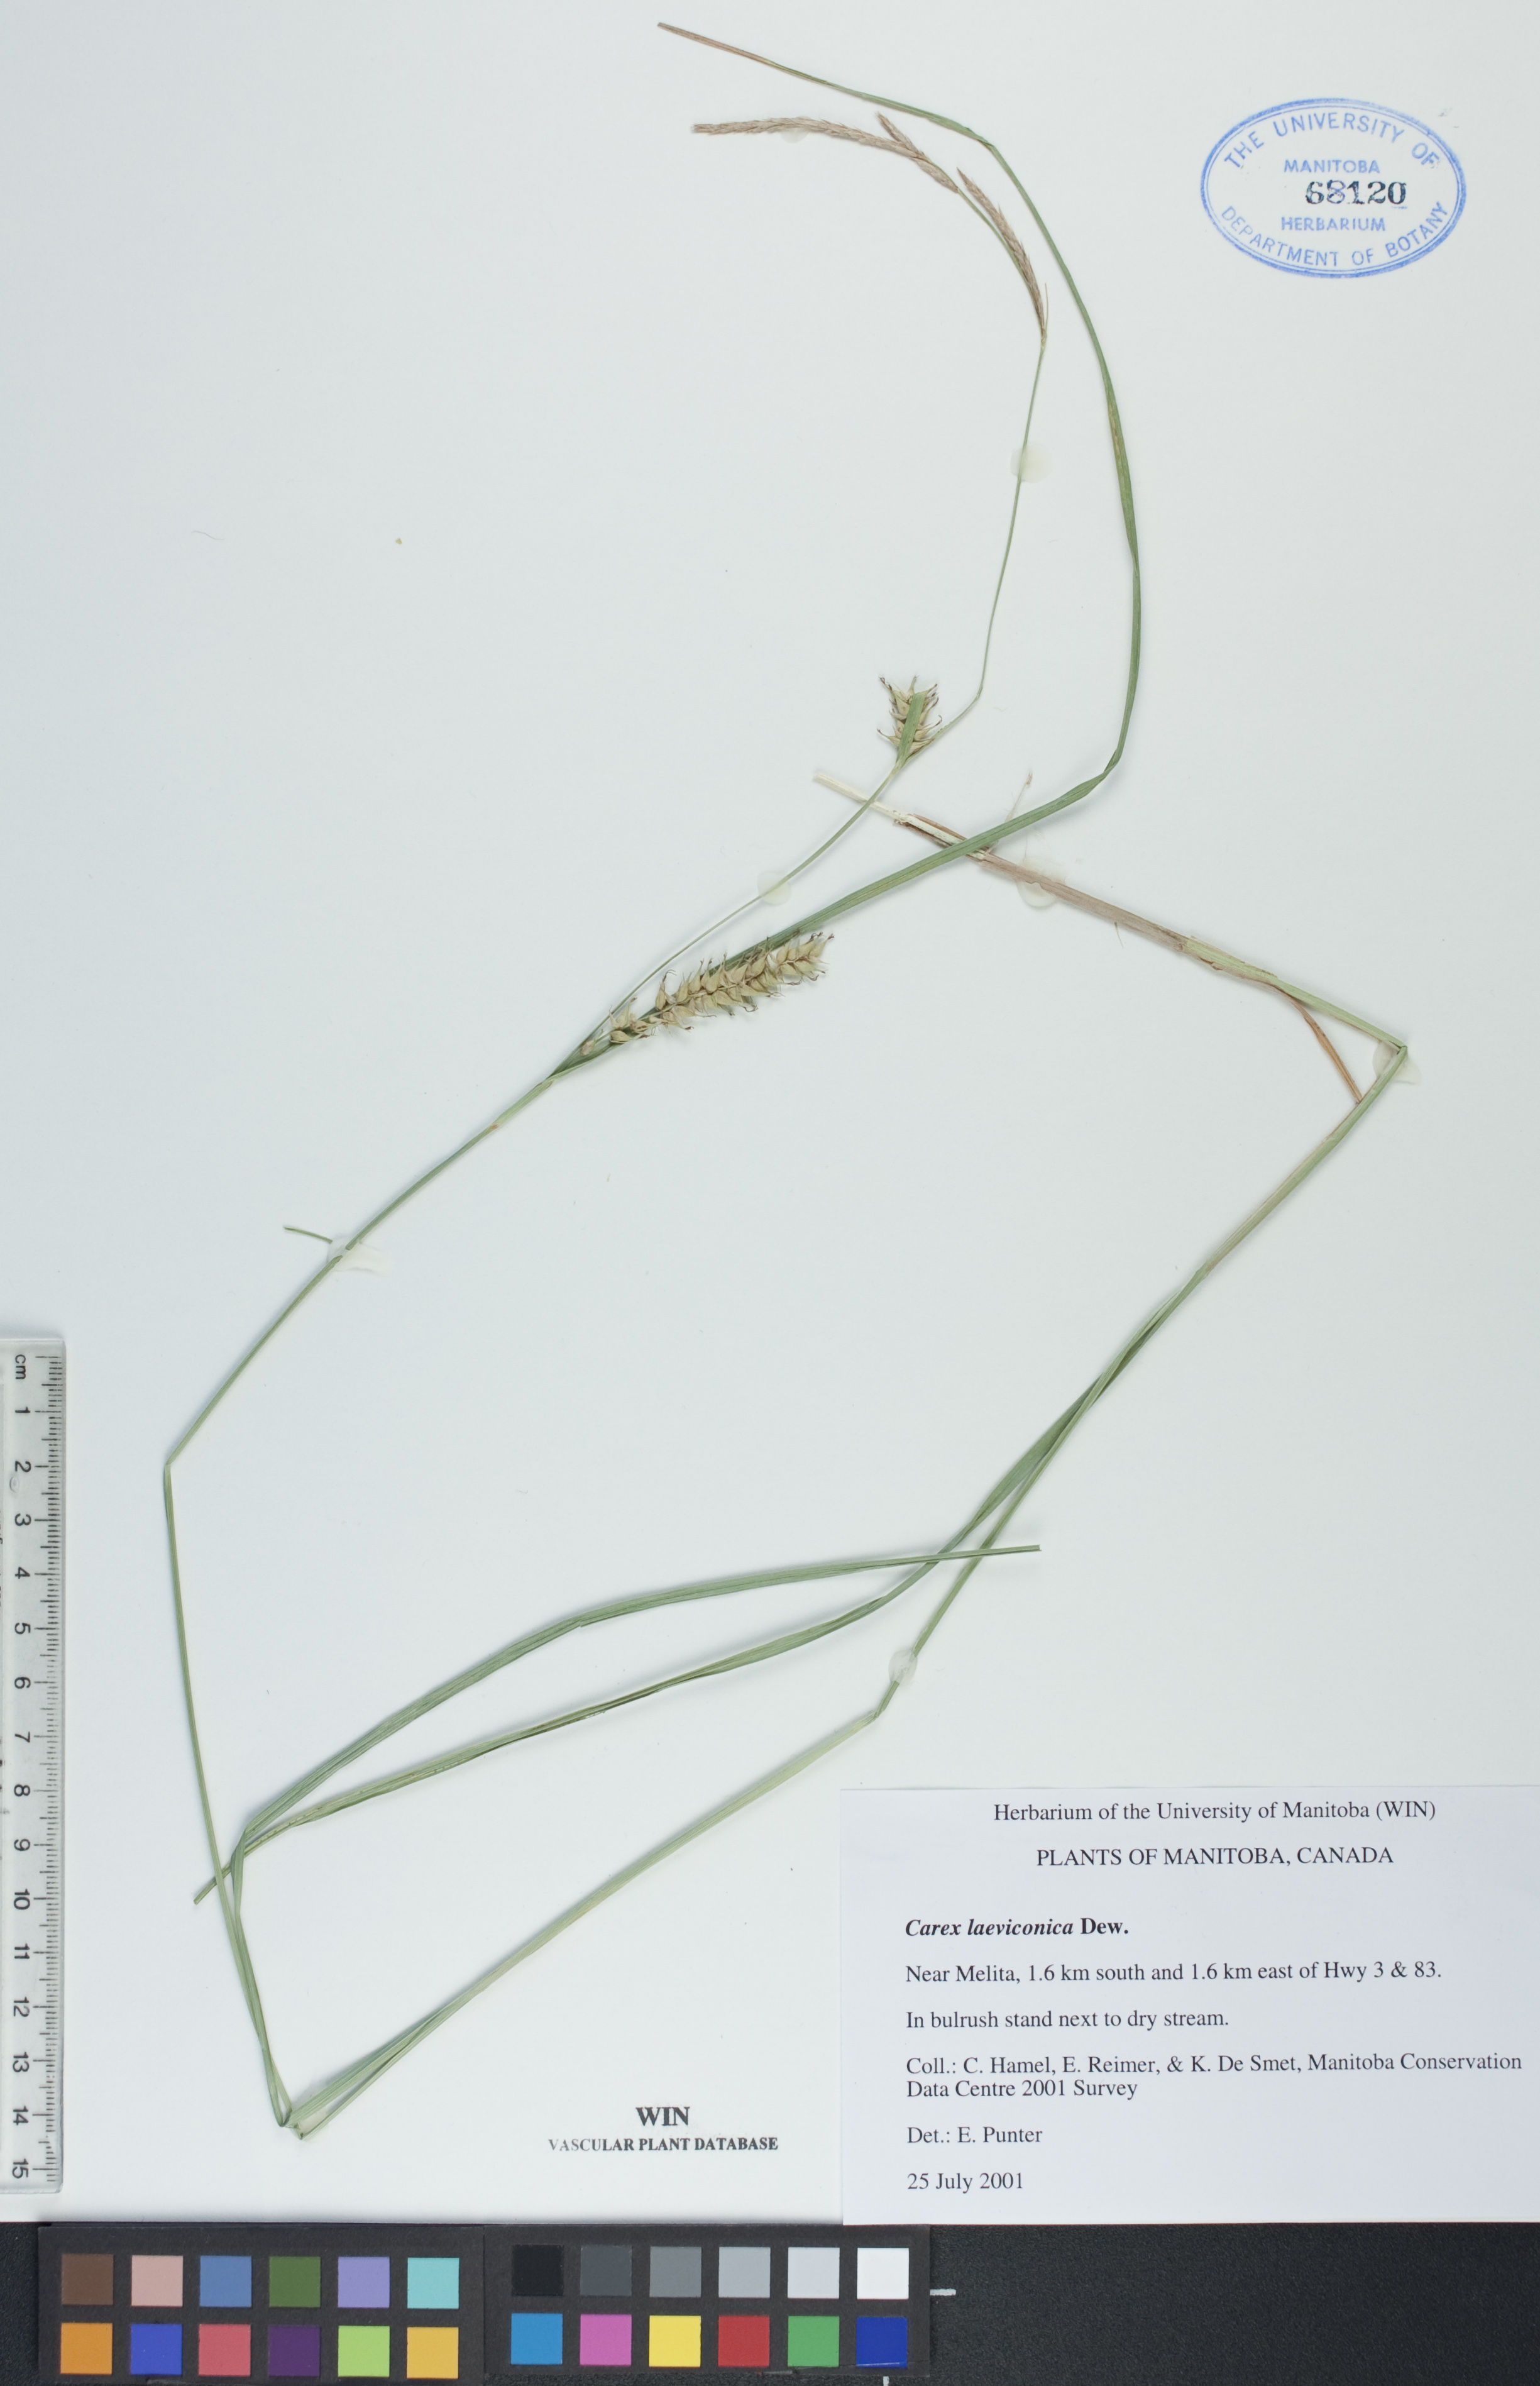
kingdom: Plantae
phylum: Tracheophyta
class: Liliopsida
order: Poales
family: Cyperaceae
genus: Carex
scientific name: Carex laeviconica
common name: Plains slough sedge
